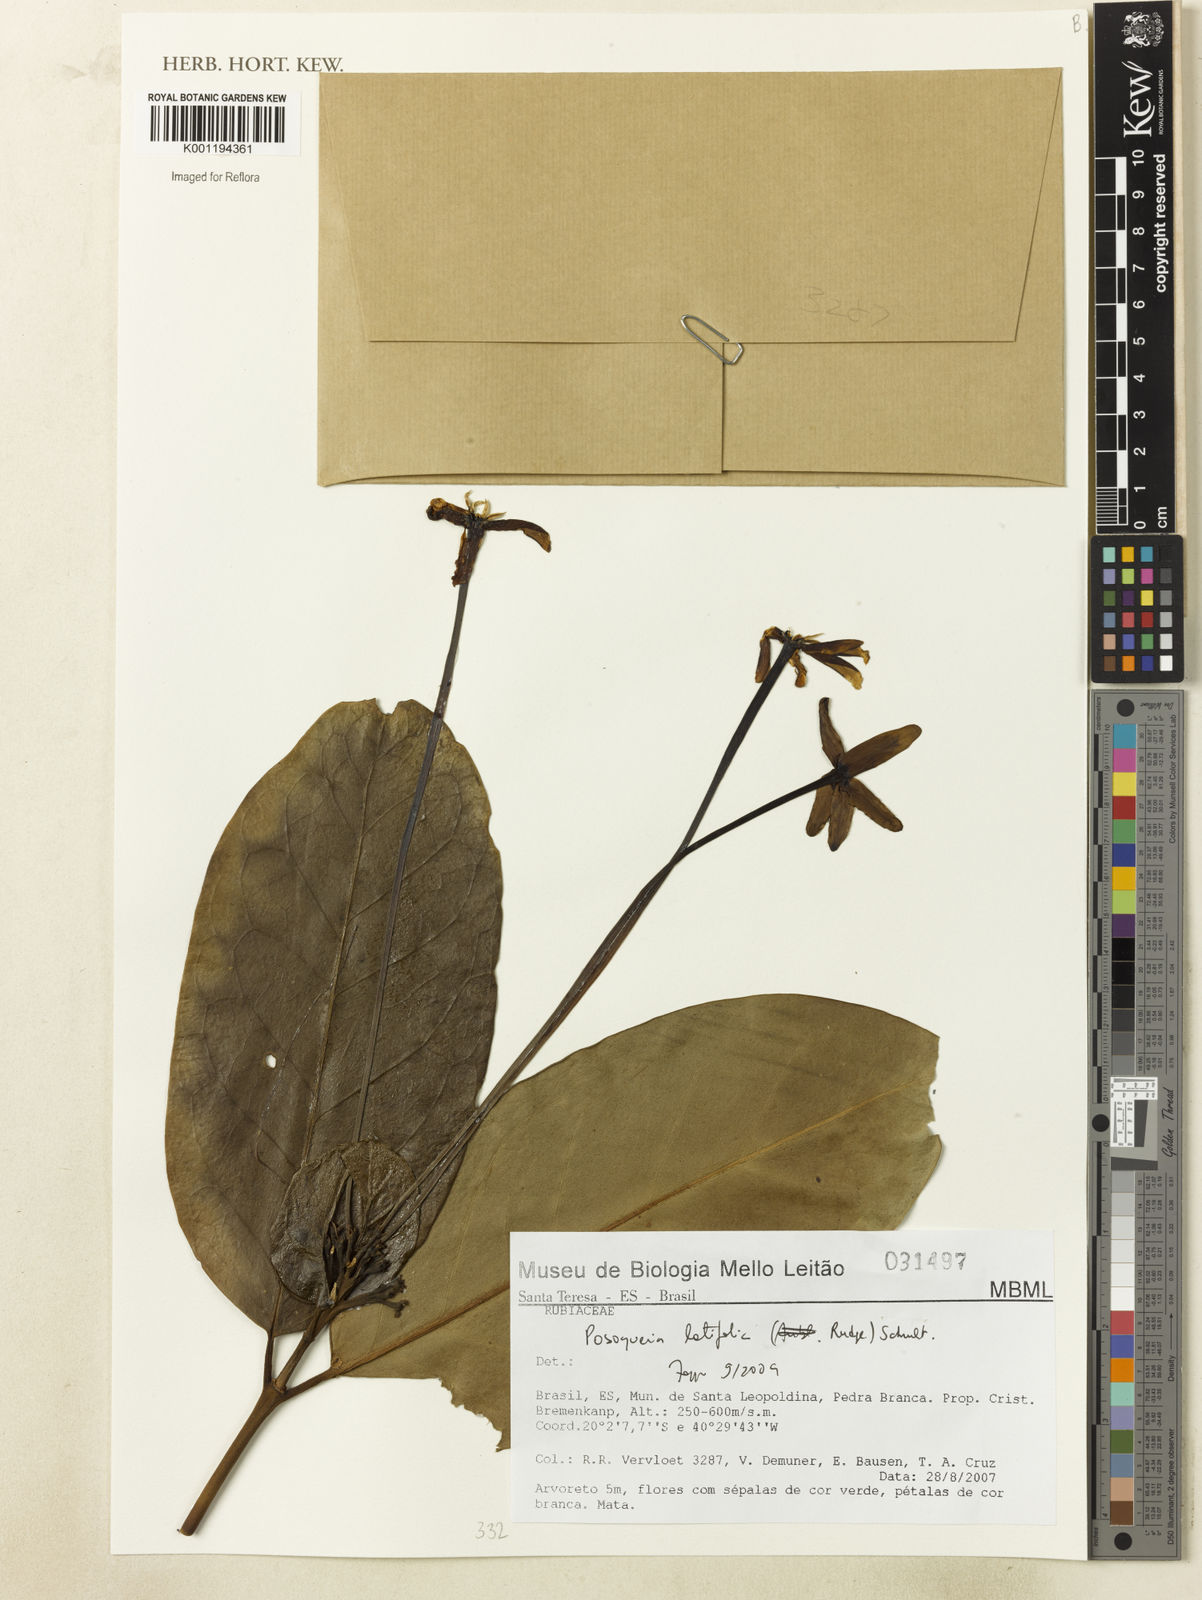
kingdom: Plantae
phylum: Tracheophyta
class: Magnoliopsida
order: Gentianales
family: Rubiaceae
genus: Posoqueria
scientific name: Posoqueria latifolia
